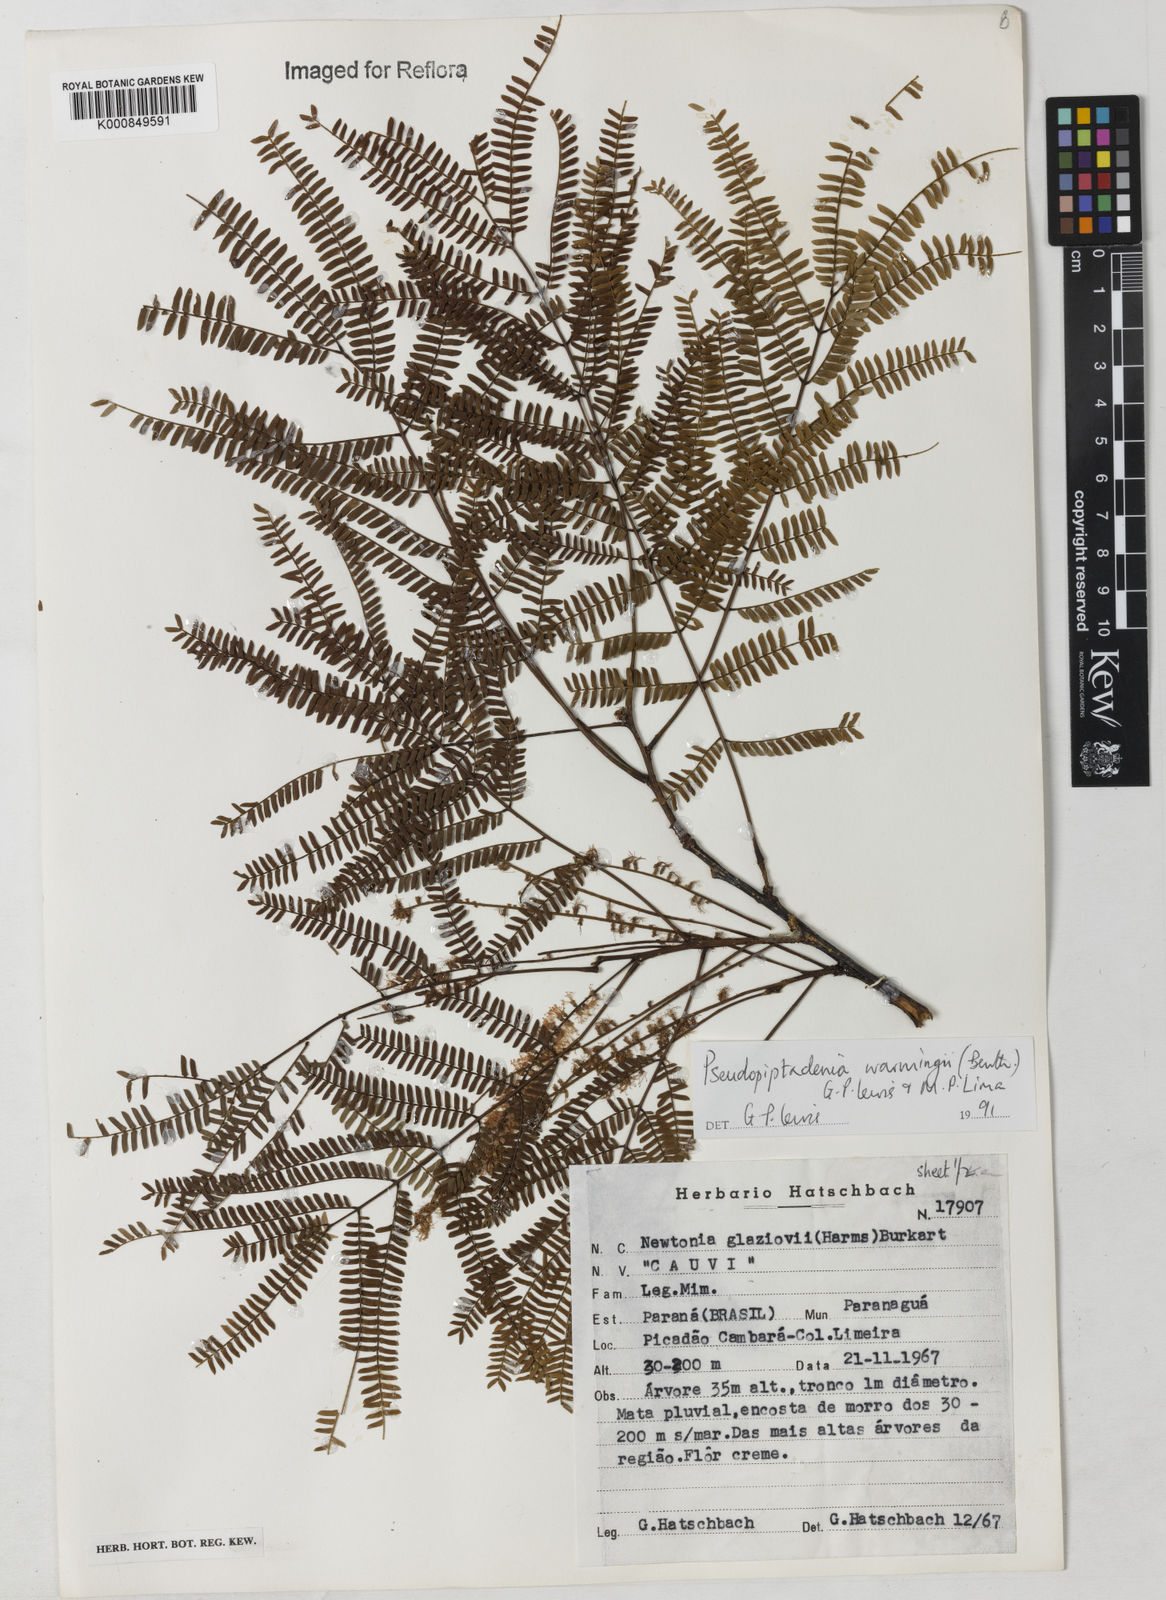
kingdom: Plantae
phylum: Tracheophyta
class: Magnoliopsida
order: Fabales
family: Fabaceae
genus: Pseudopiptadenia
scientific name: Pseudopiptadenia warmingii
